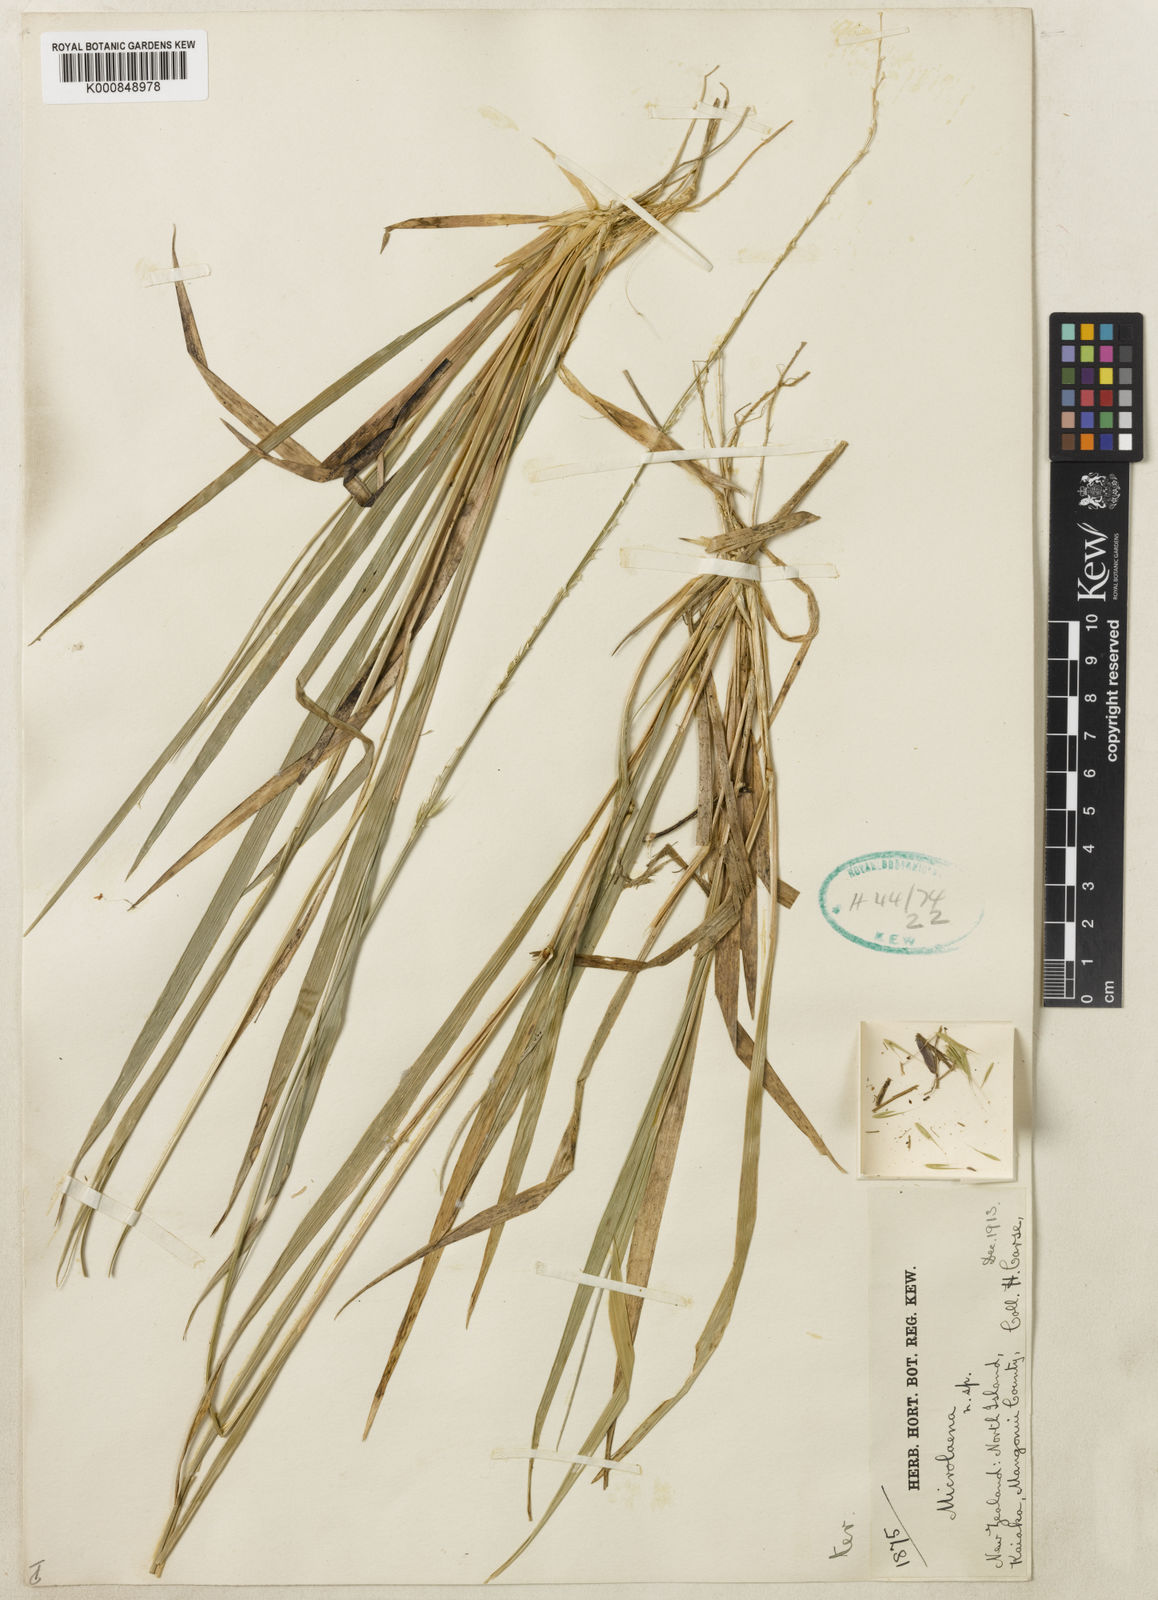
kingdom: Plantae
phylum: Tracheophyta
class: Liliopsida
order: Poales
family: Poaceae
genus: Ehrharta
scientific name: Ehrharta diplax
